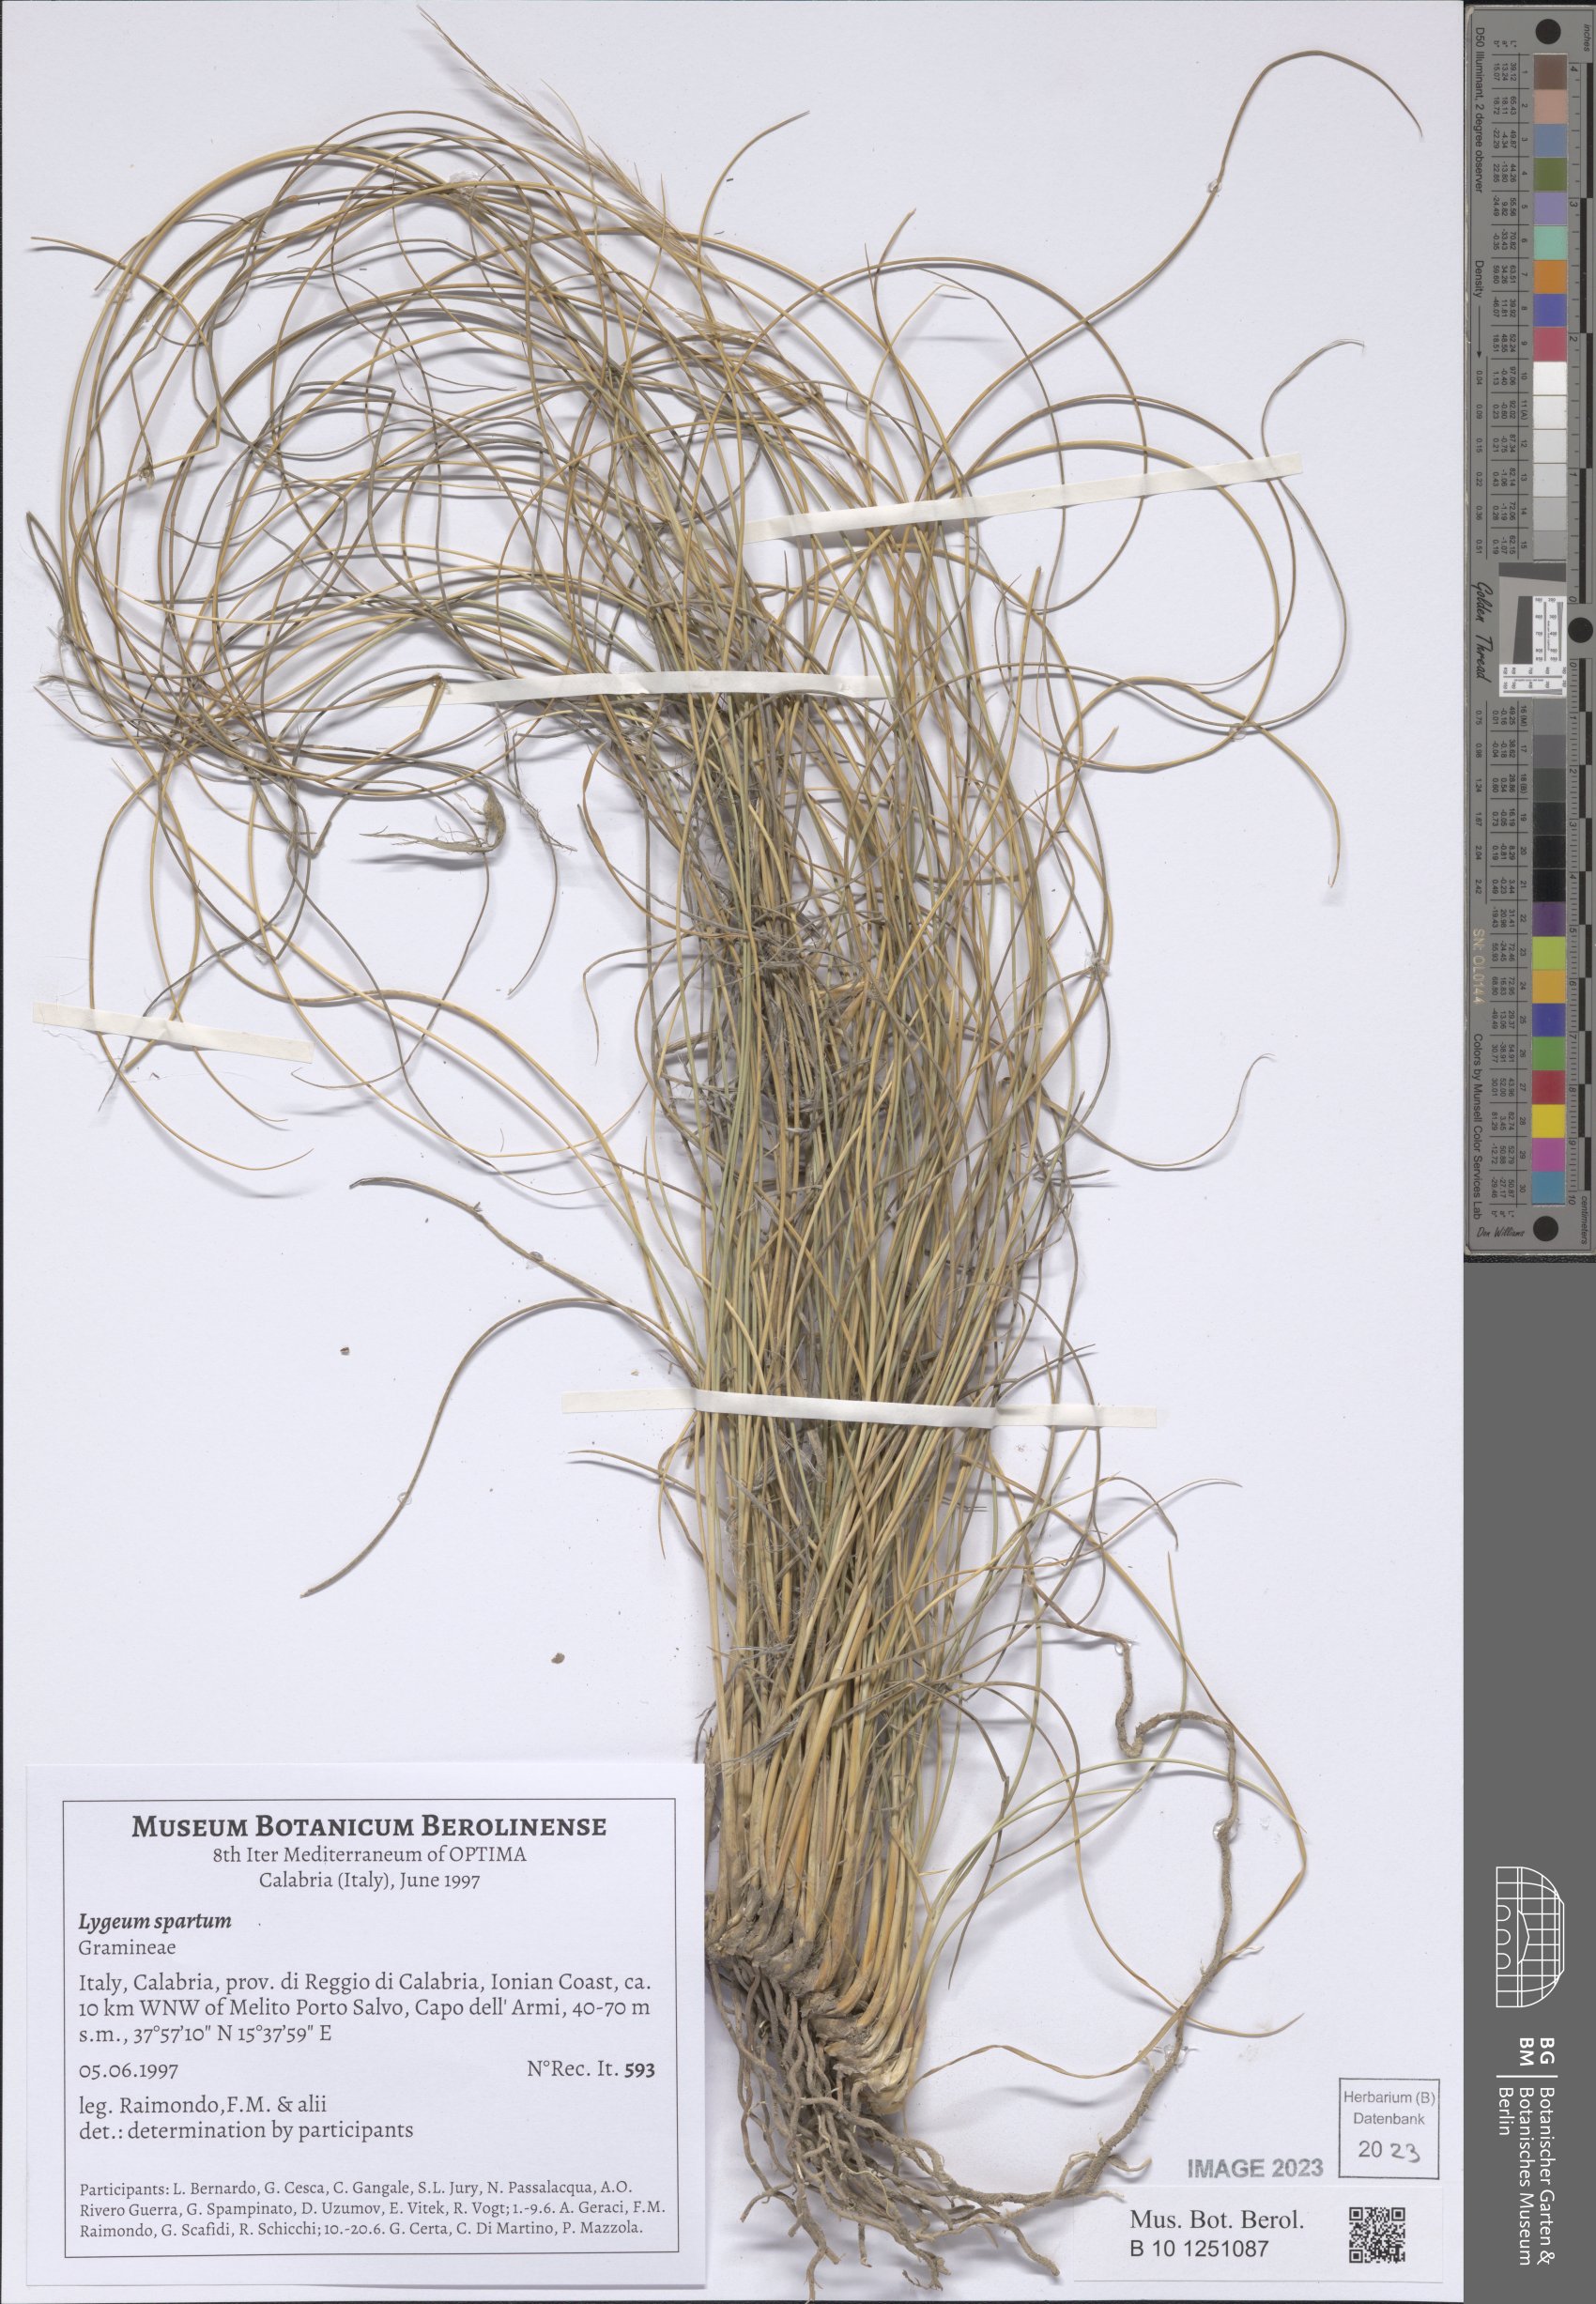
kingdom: Plantae
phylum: Tracheophyta
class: Liliopsida
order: Poales
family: Poaceae
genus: Lygeum
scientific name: Lygeum spartum
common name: Albardine
